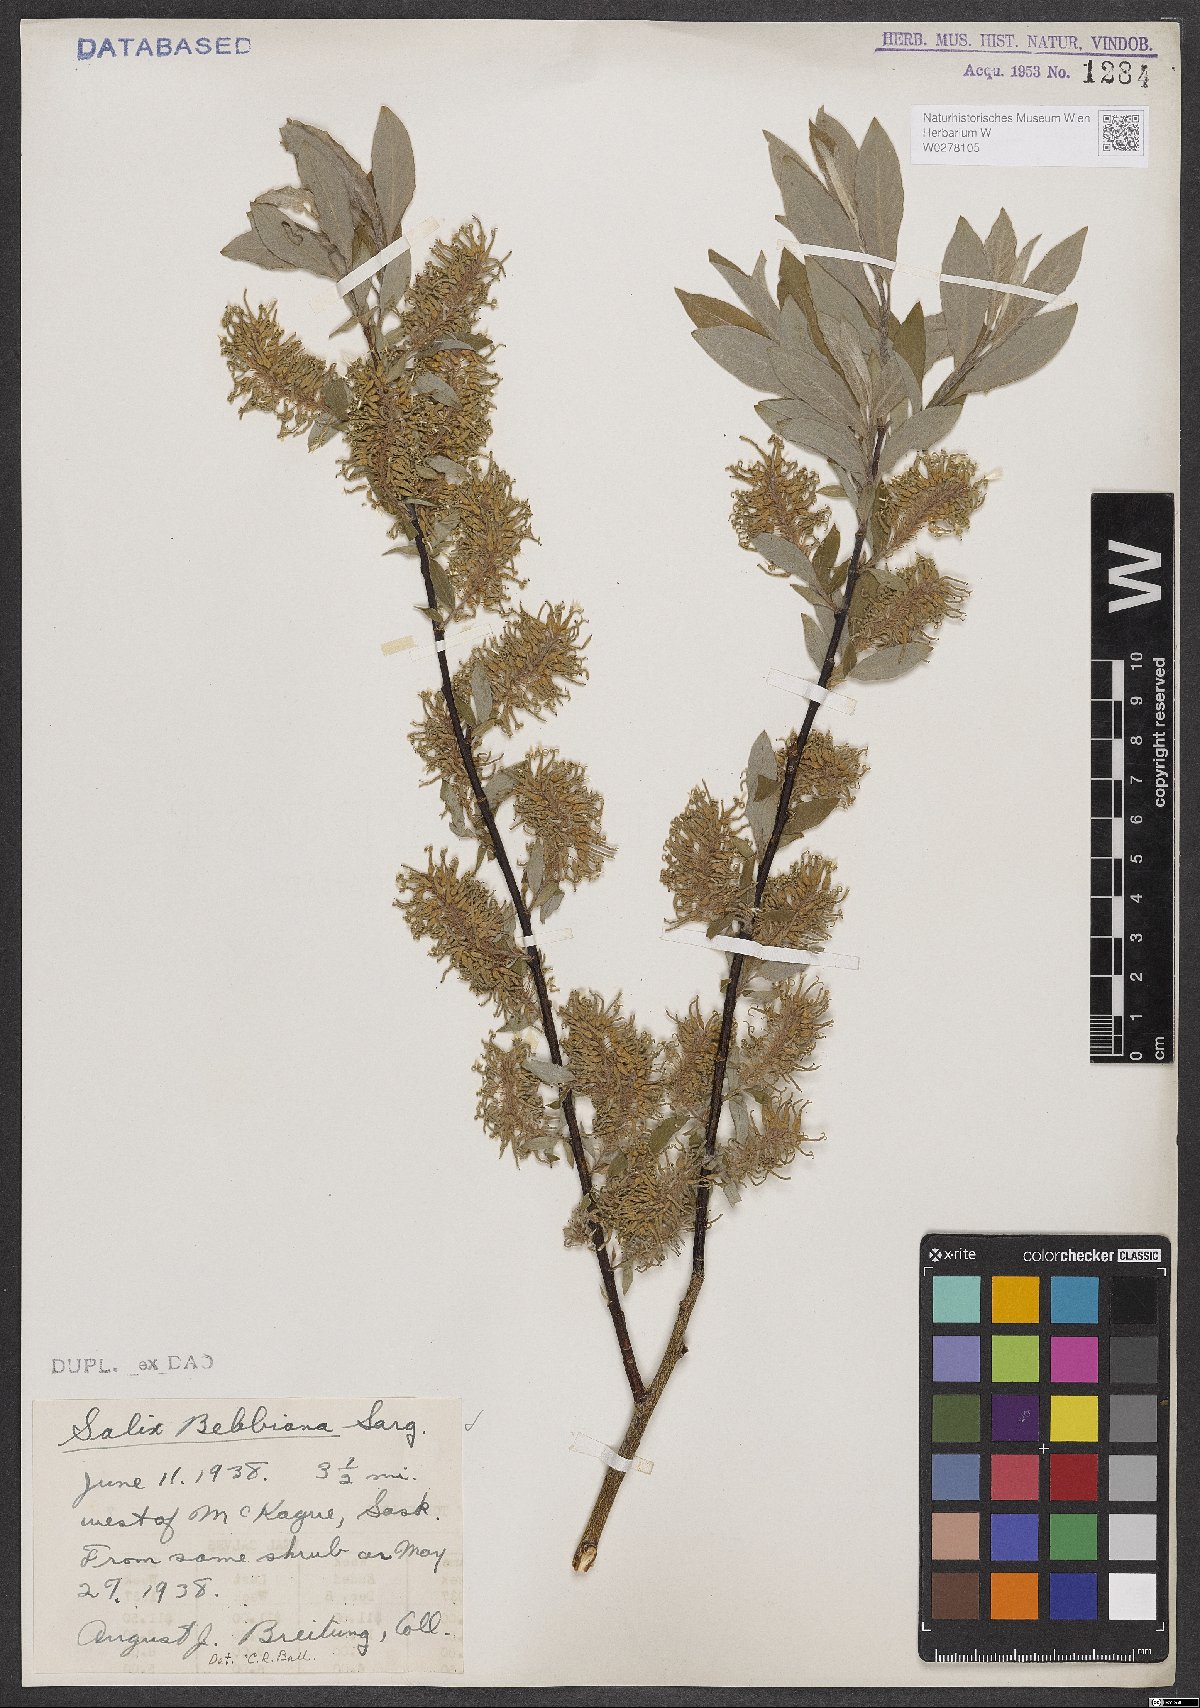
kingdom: Plantae
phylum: Tracheophyta
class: Magnoliopsida
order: Malpighiales
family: Salicaceae
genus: Salix
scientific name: Salix bebbiana
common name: Bebb's willow
